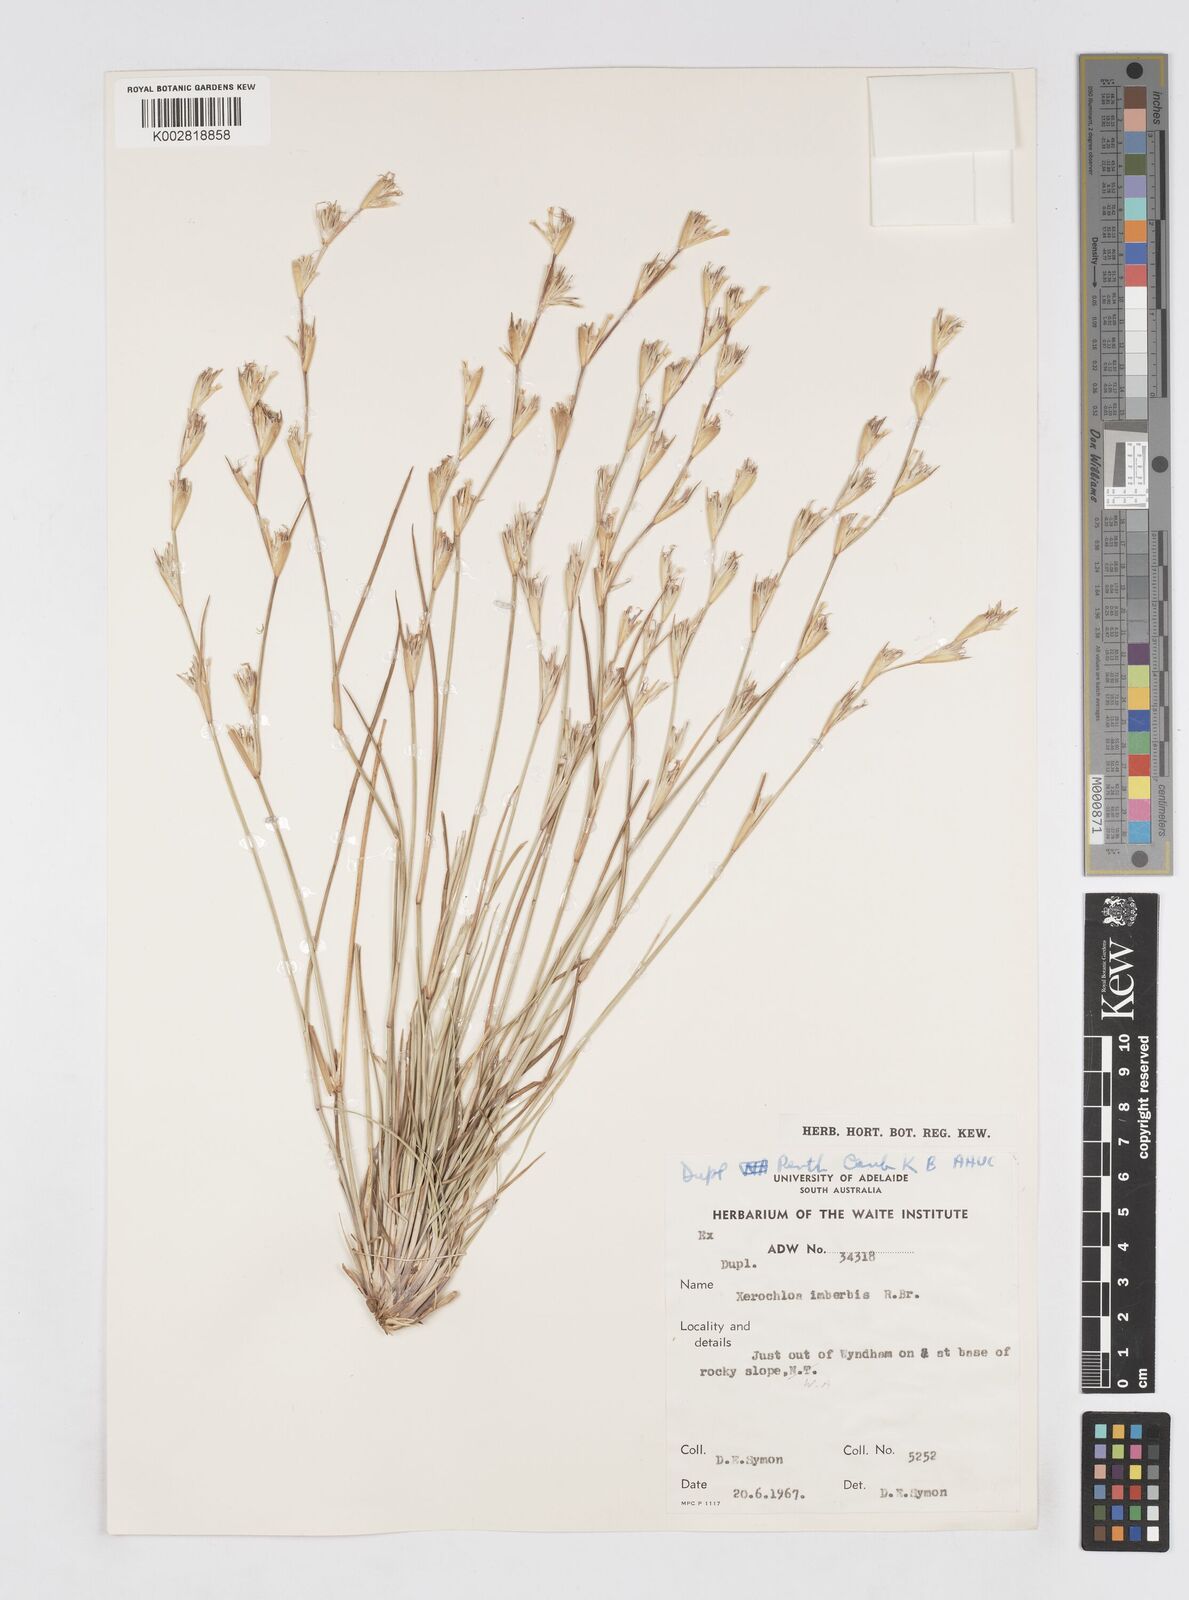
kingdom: Plantae
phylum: Tracheophyta
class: Liliopsida
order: Poales
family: Poaceae
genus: Xerochloa
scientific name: Xerochloa imberbis
